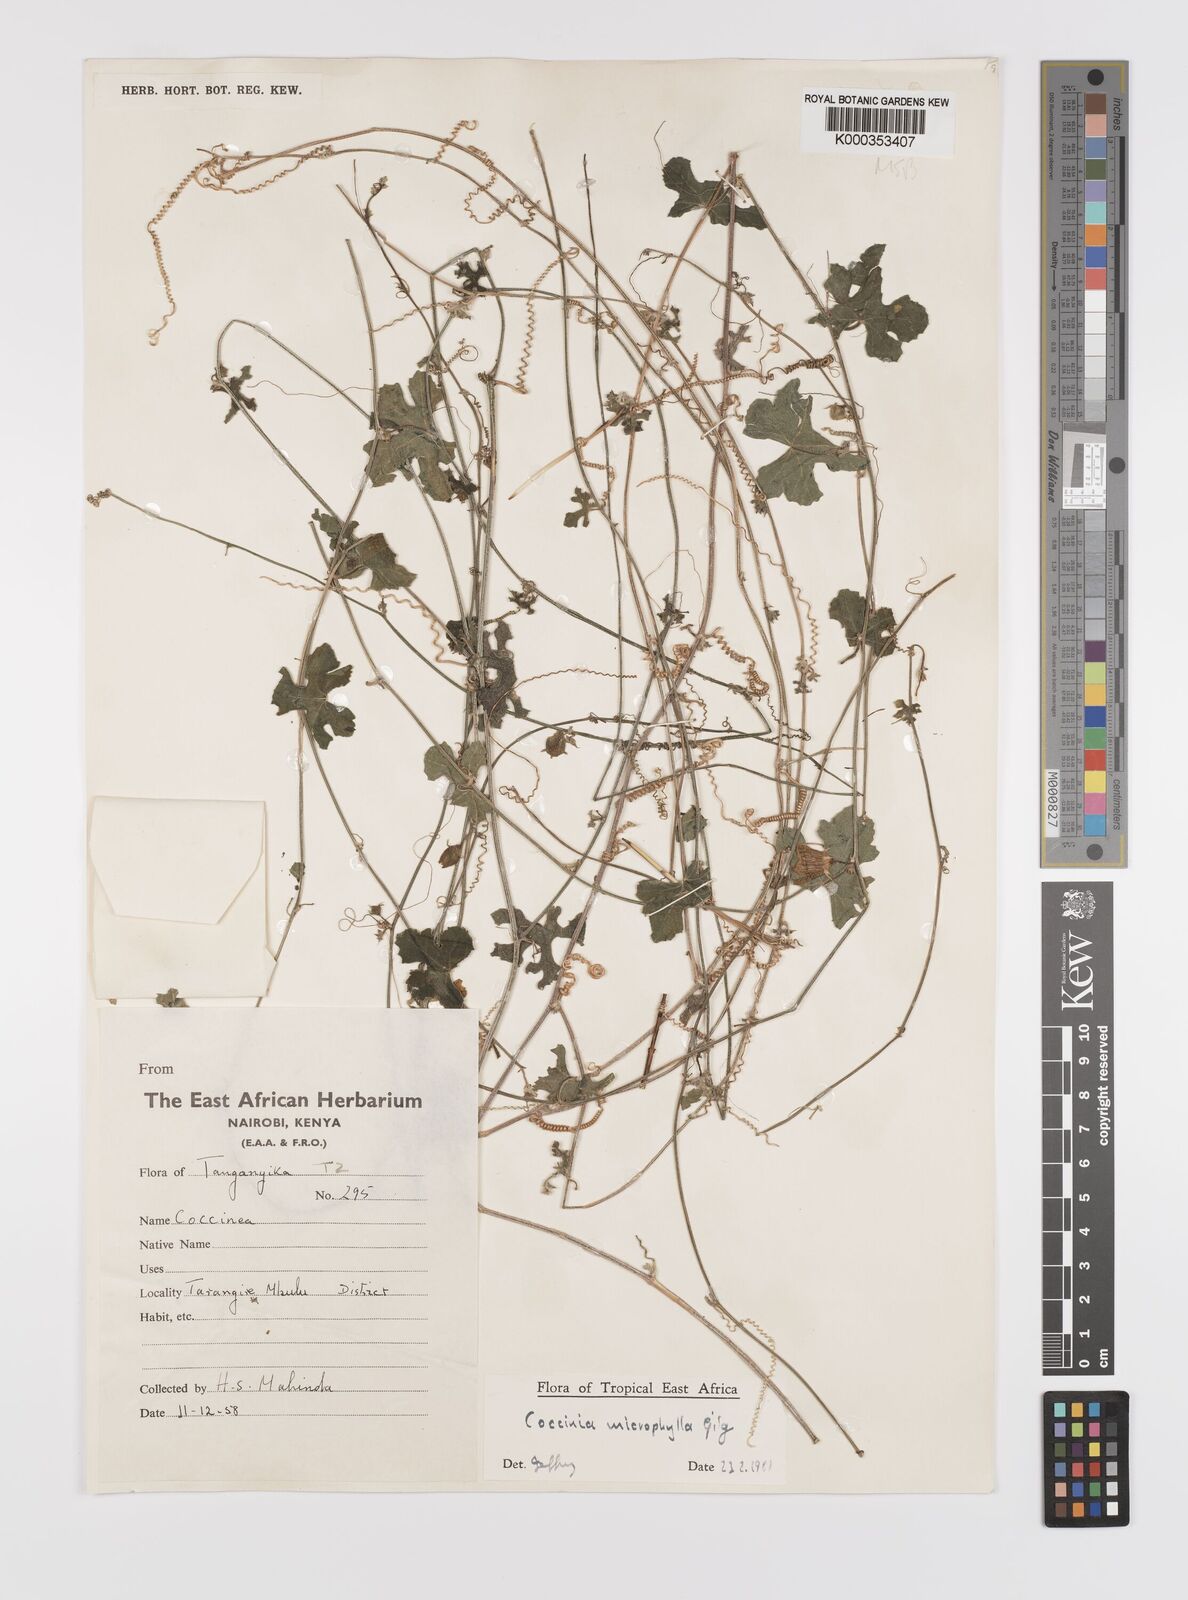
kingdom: Plantae
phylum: Tracheophyta
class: Magnoliopsida
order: Cucurbitales
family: Cucurbitaceae
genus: Coccinia
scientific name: Coccinia microphylla
